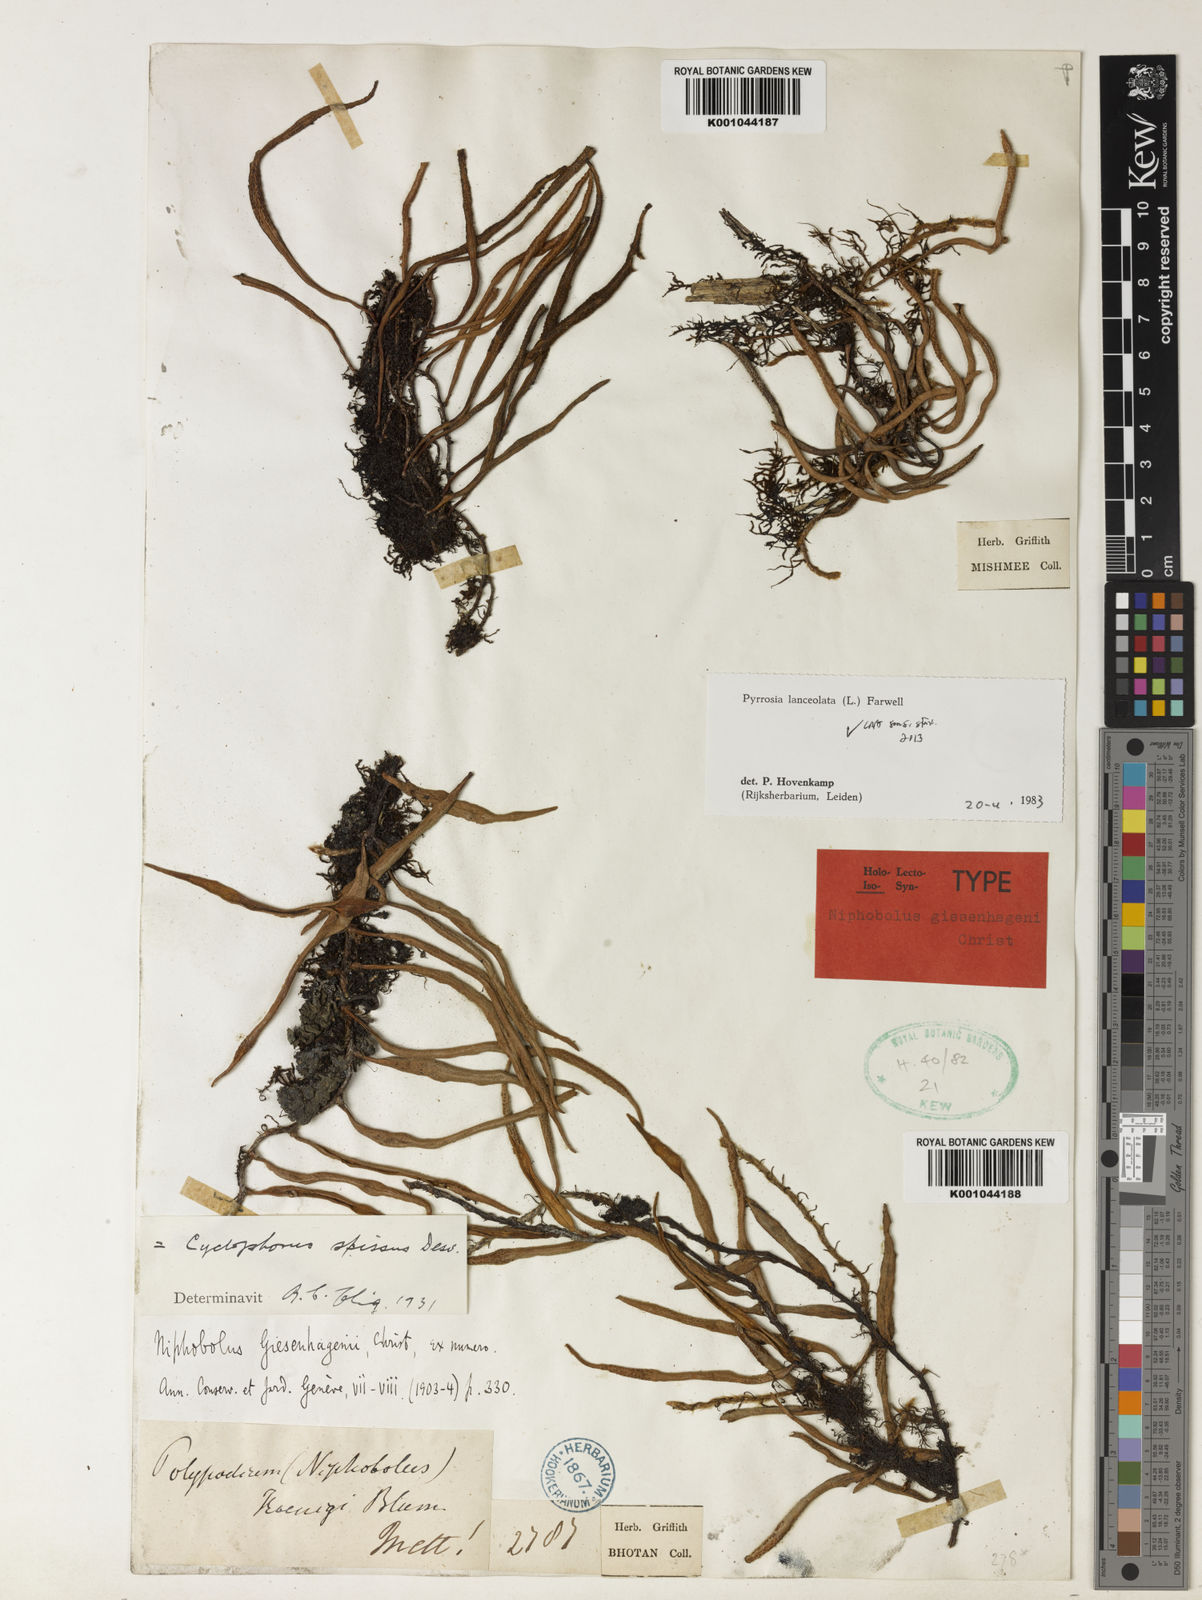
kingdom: Plantae
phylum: Tracheophyta
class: Polypodiopsida
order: Polypodiales
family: Polypodiaceae
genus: Pyrrosia
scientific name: Pyrrosia
